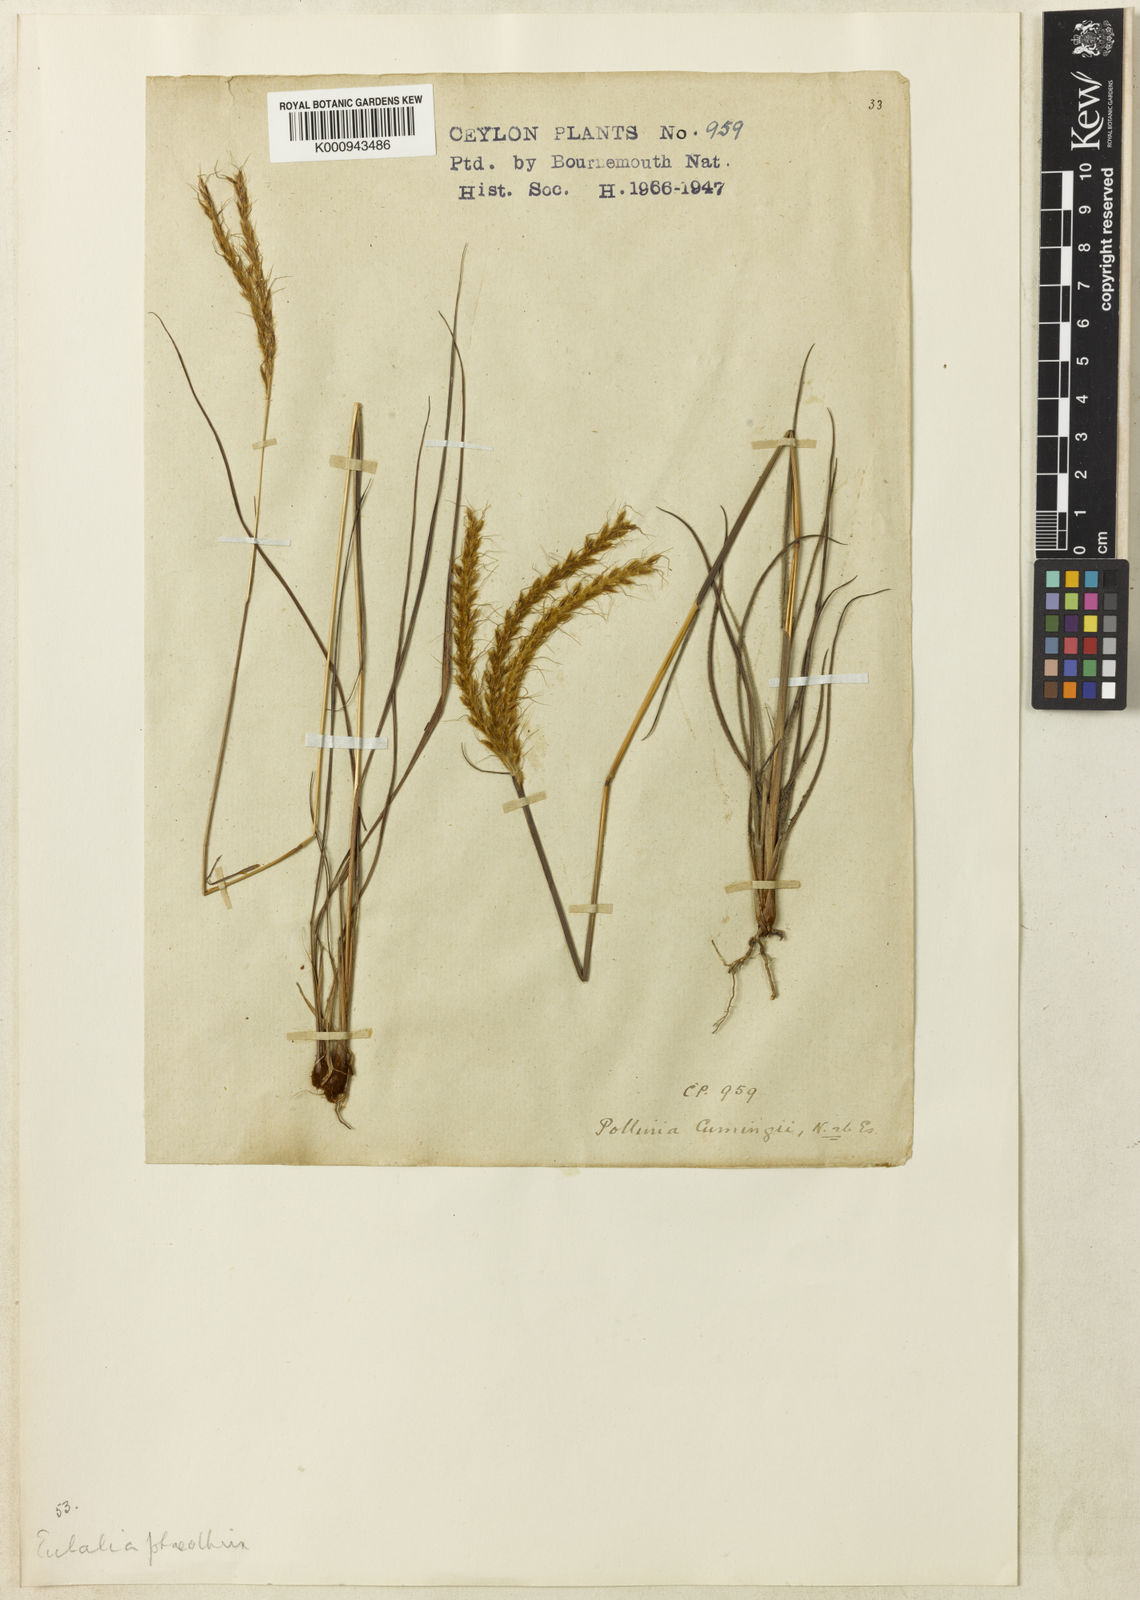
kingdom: Plantae
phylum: Tracheophyta
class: Liliopsida
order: Poales
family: Poaceae
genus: Eulalia
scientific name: Eulalia phaeothrix
